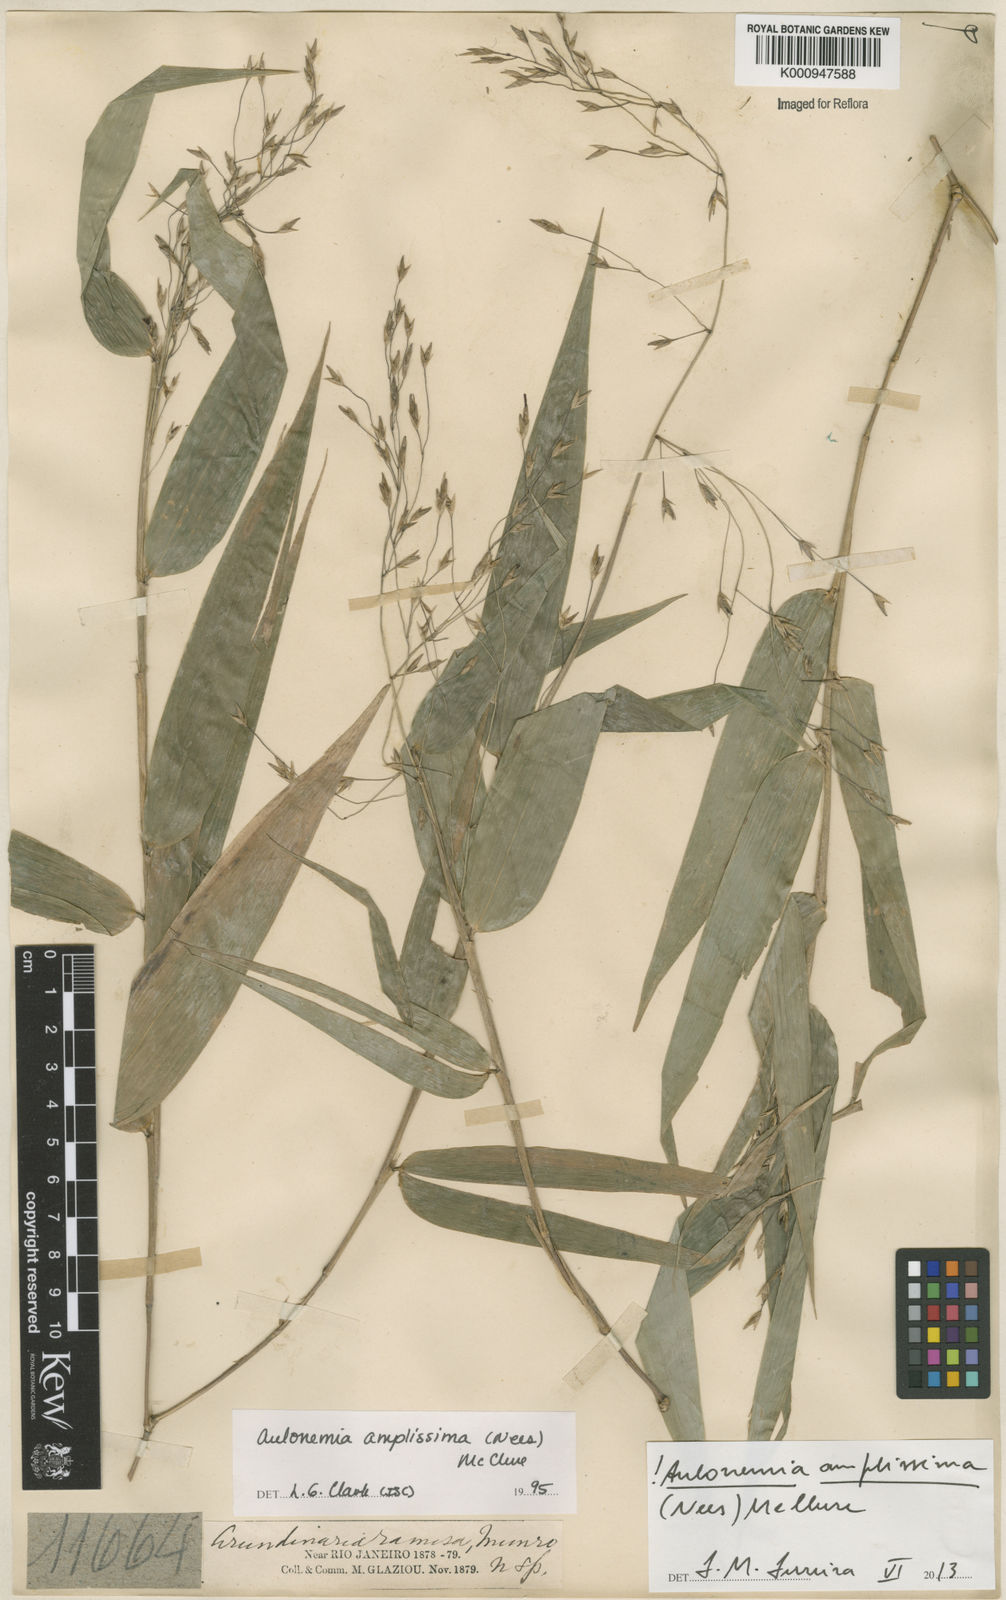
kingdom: Plantae
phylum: Tracheophyta
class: Liliopsida
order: Poales
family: Poaceae
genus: Aulonemia
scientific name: Aulonemia amplissima
